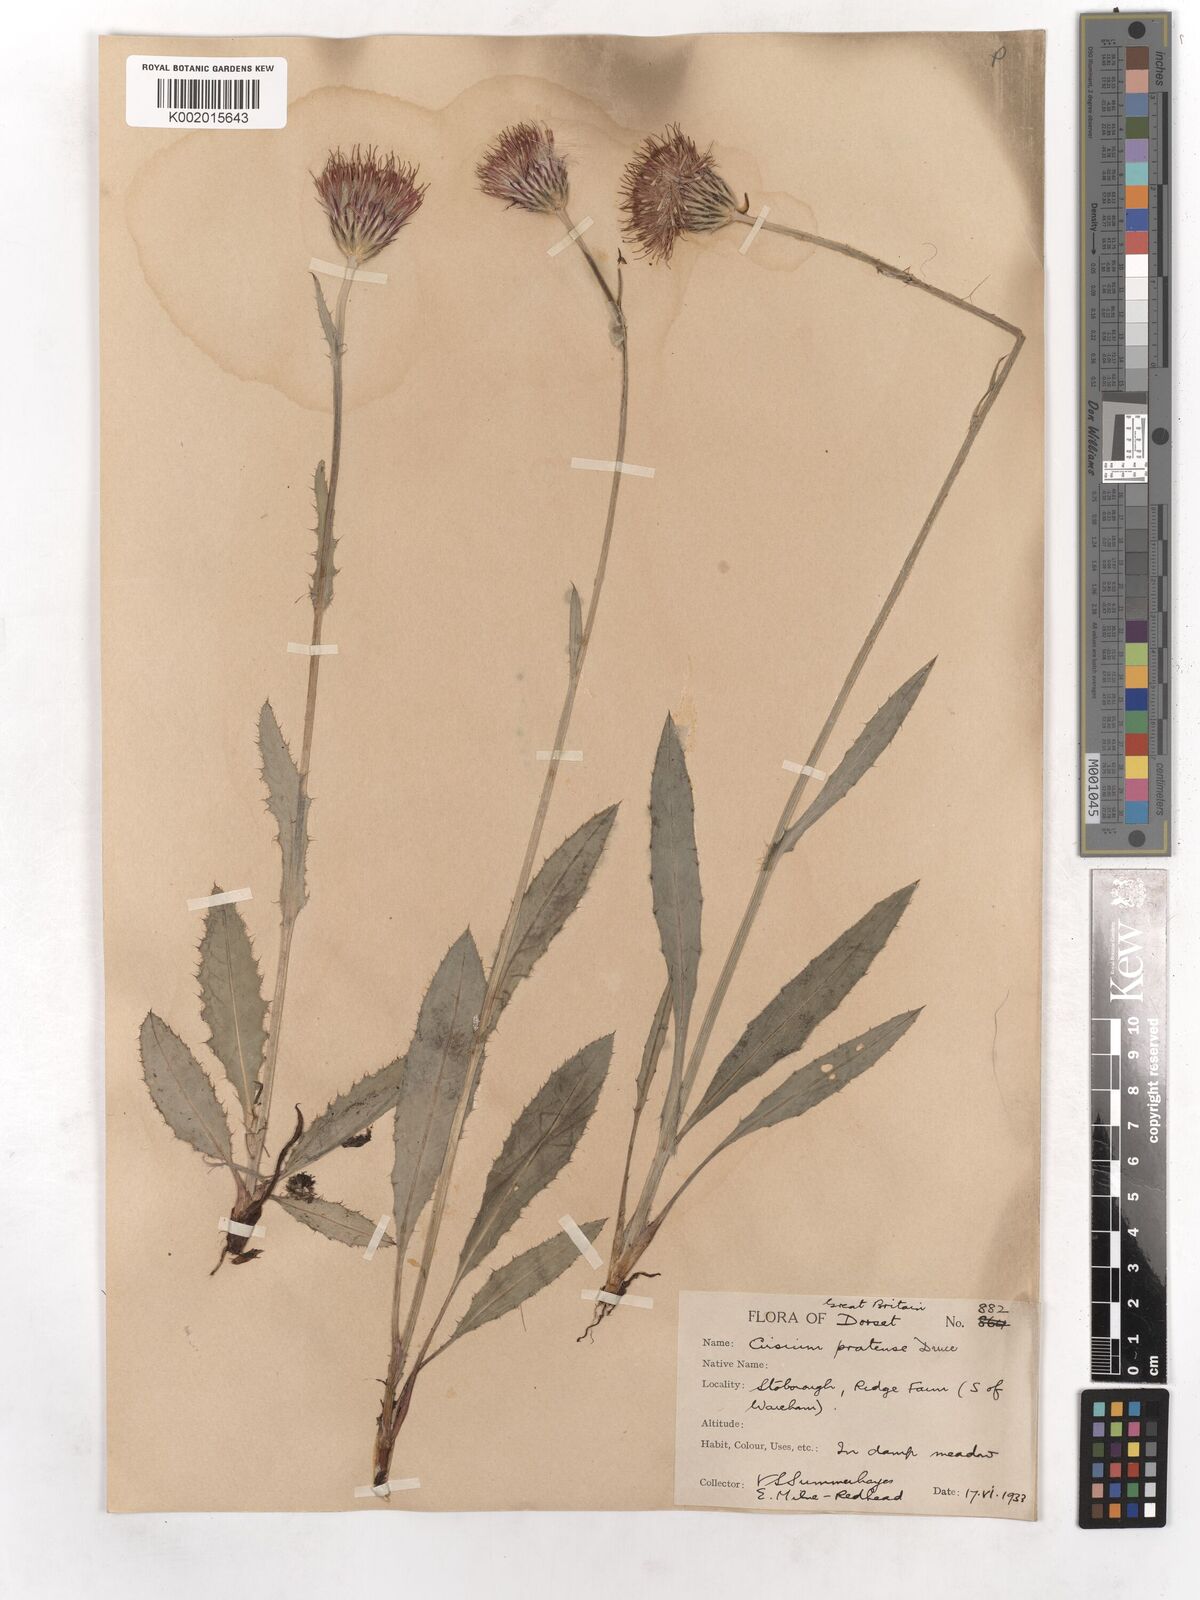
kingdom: Plantae
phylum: Tracheophyta
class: Magnoliopsida
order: Asterales
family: Asteraceae
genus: Cirsium
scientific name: Cirsium
